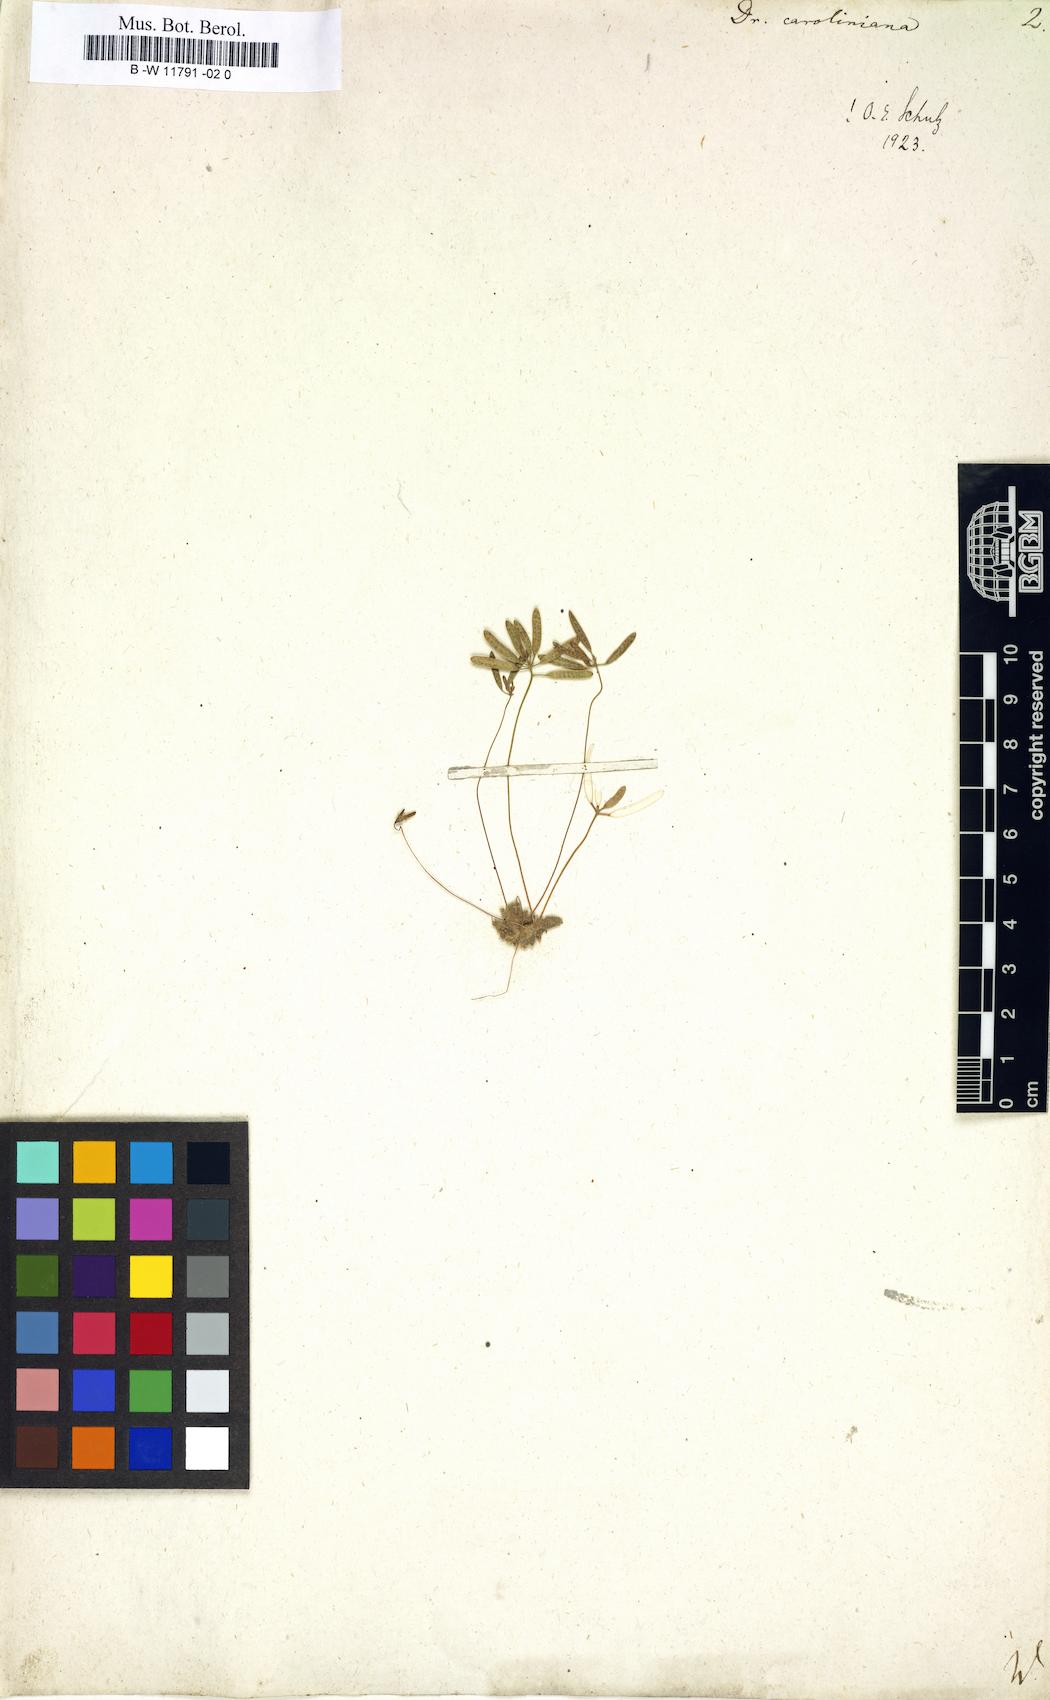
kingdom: Plantae
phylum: Tracheophyta
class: Magnoliopsida
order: Brassicales
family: Brassicaceae
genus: Tomostima
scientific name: Tomostima reptans
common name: Carolina draba
